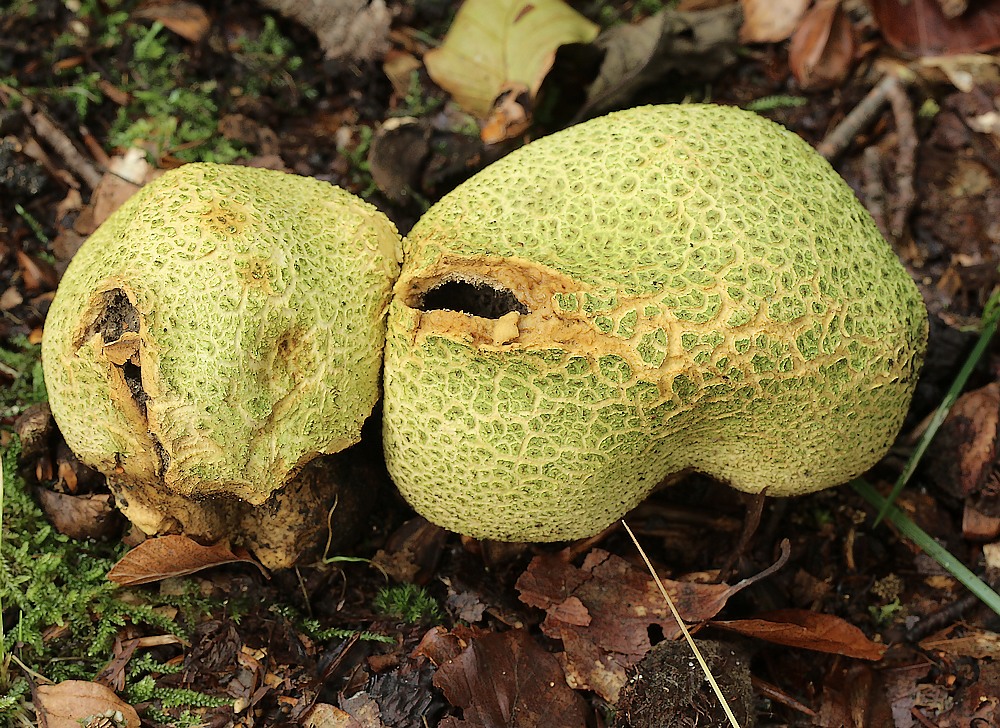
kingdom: Fungi
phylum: Basidiomycota
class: Agaricomycetes
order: Boletales
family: Sclerodermataceae
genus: Scleroderma
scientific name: Scleroderma citrinum
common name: almindelig bruskbold
